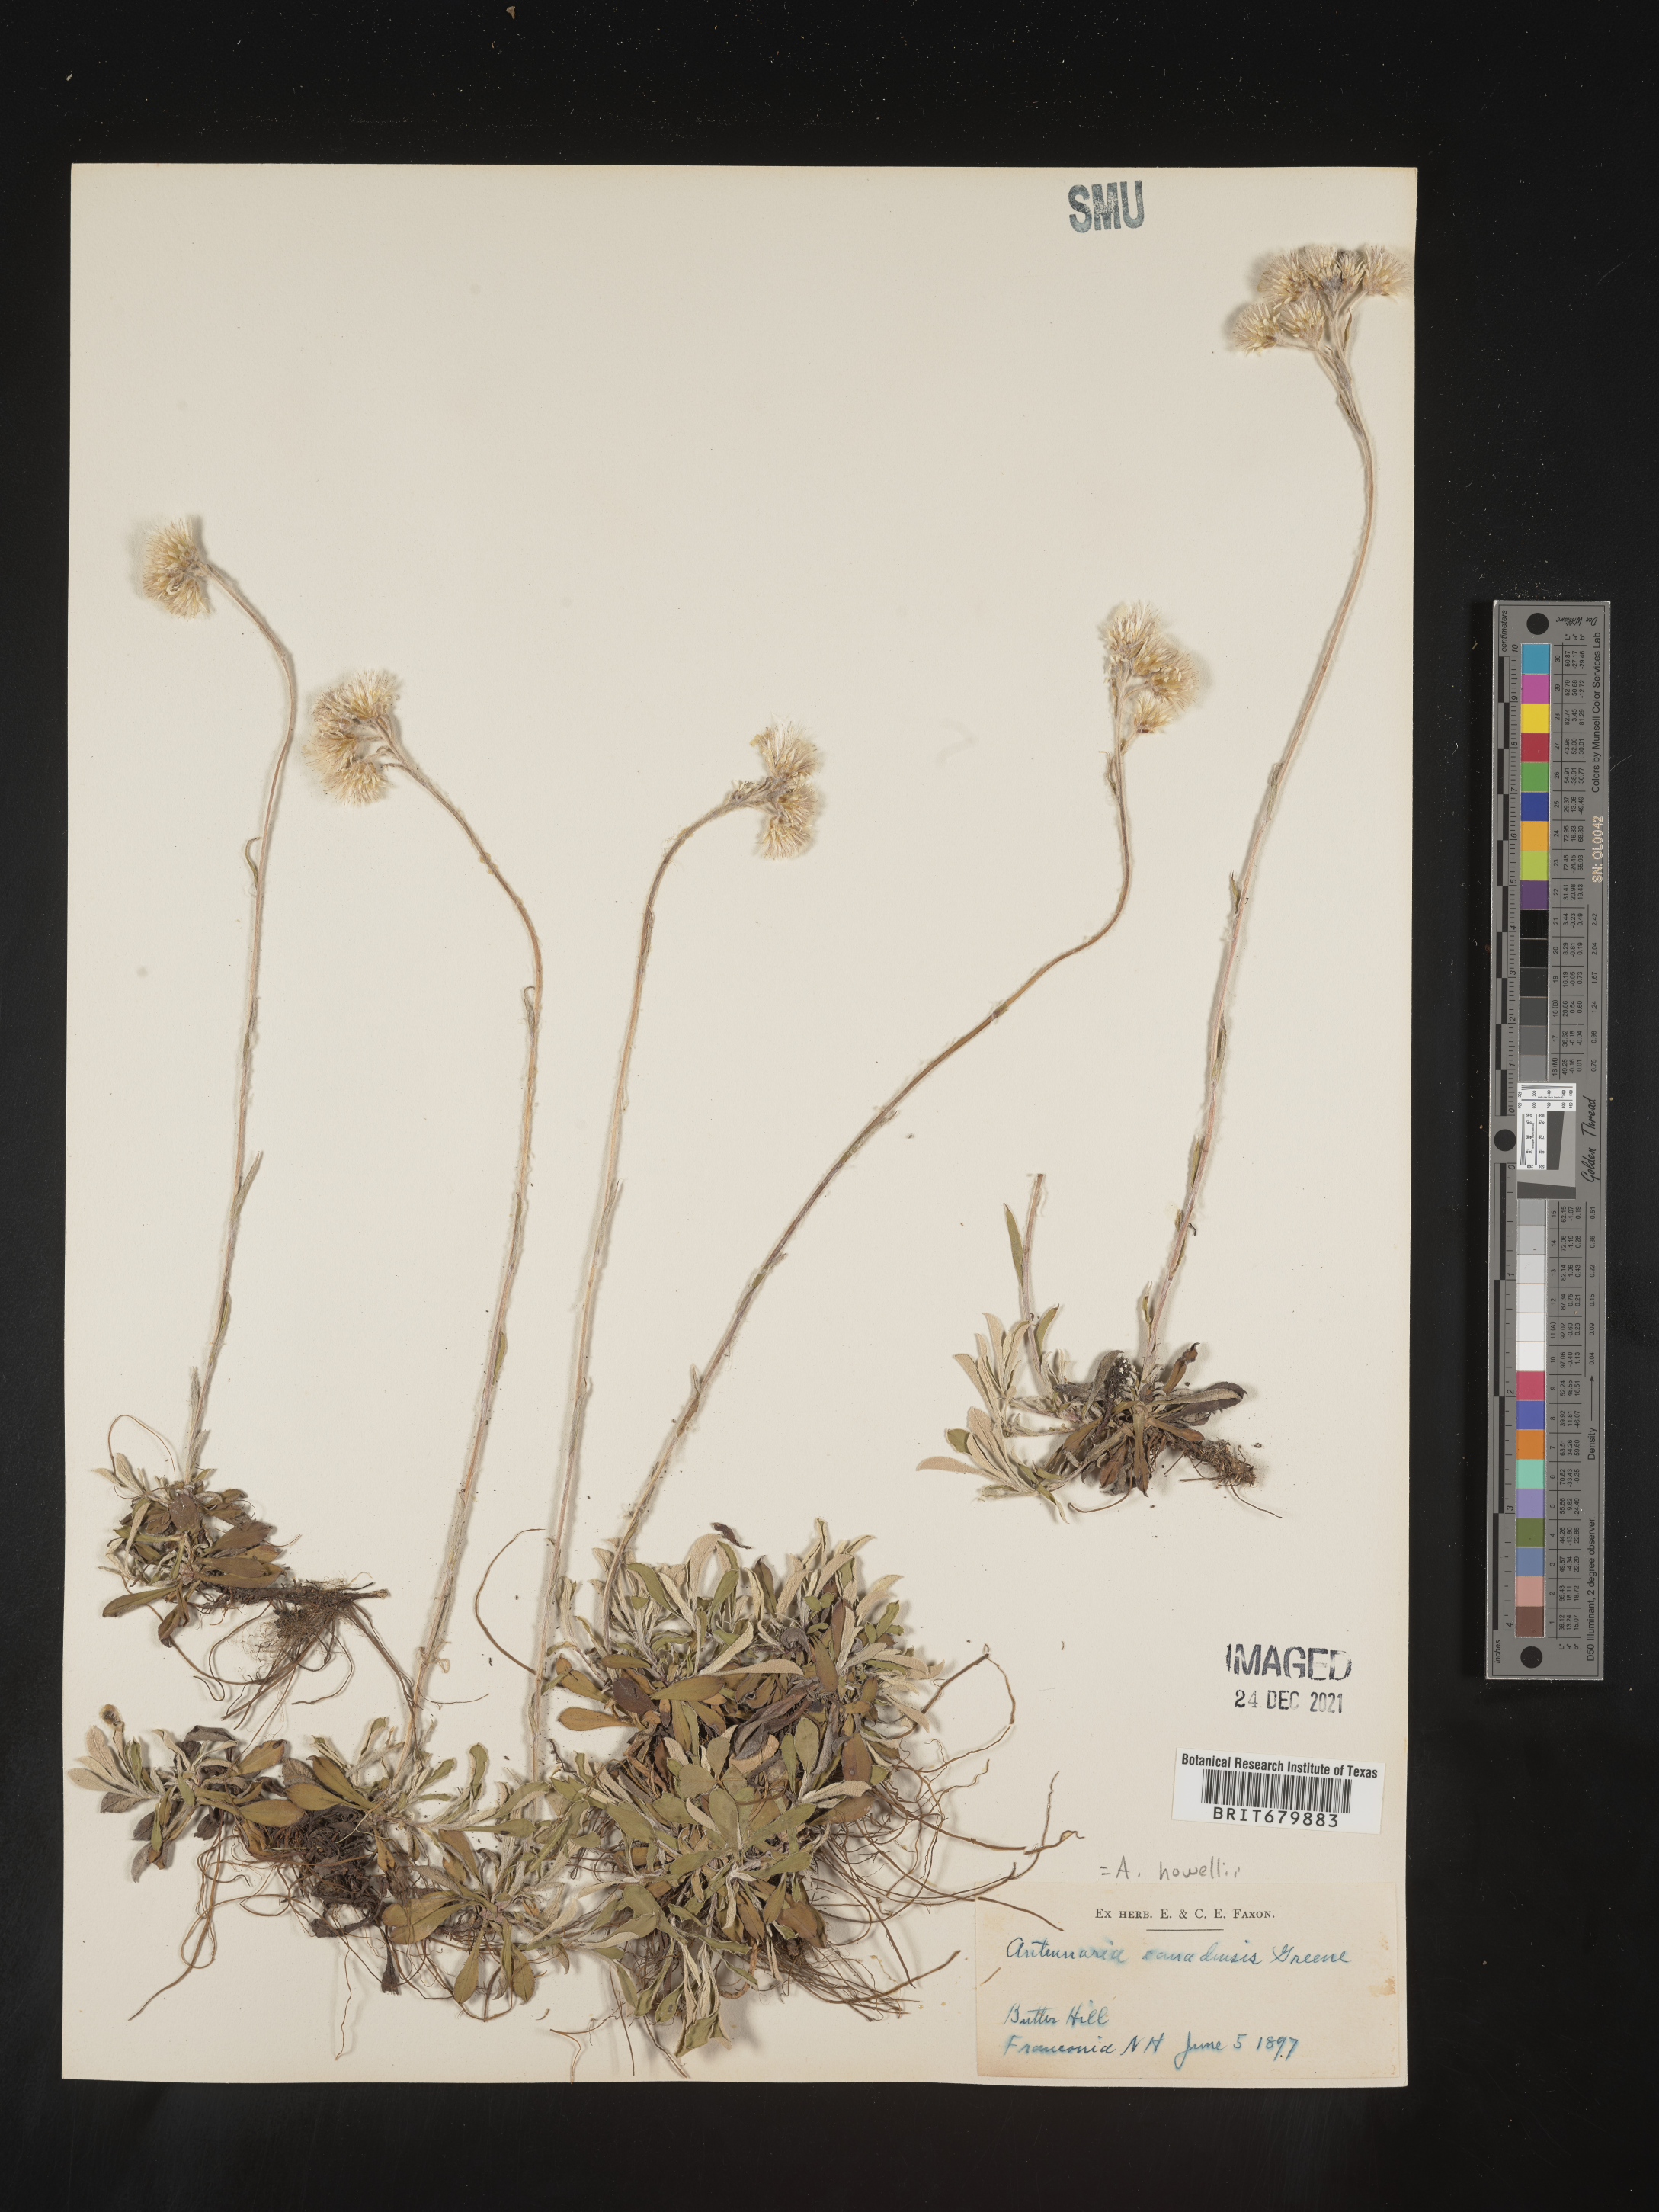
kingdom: Plantae
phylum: Tracheophyta
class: Magnoliopsida
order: Asterales
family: Asteraceae
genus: Antennaria
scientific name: Antennaria howellii
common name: Howell's pussytoes
